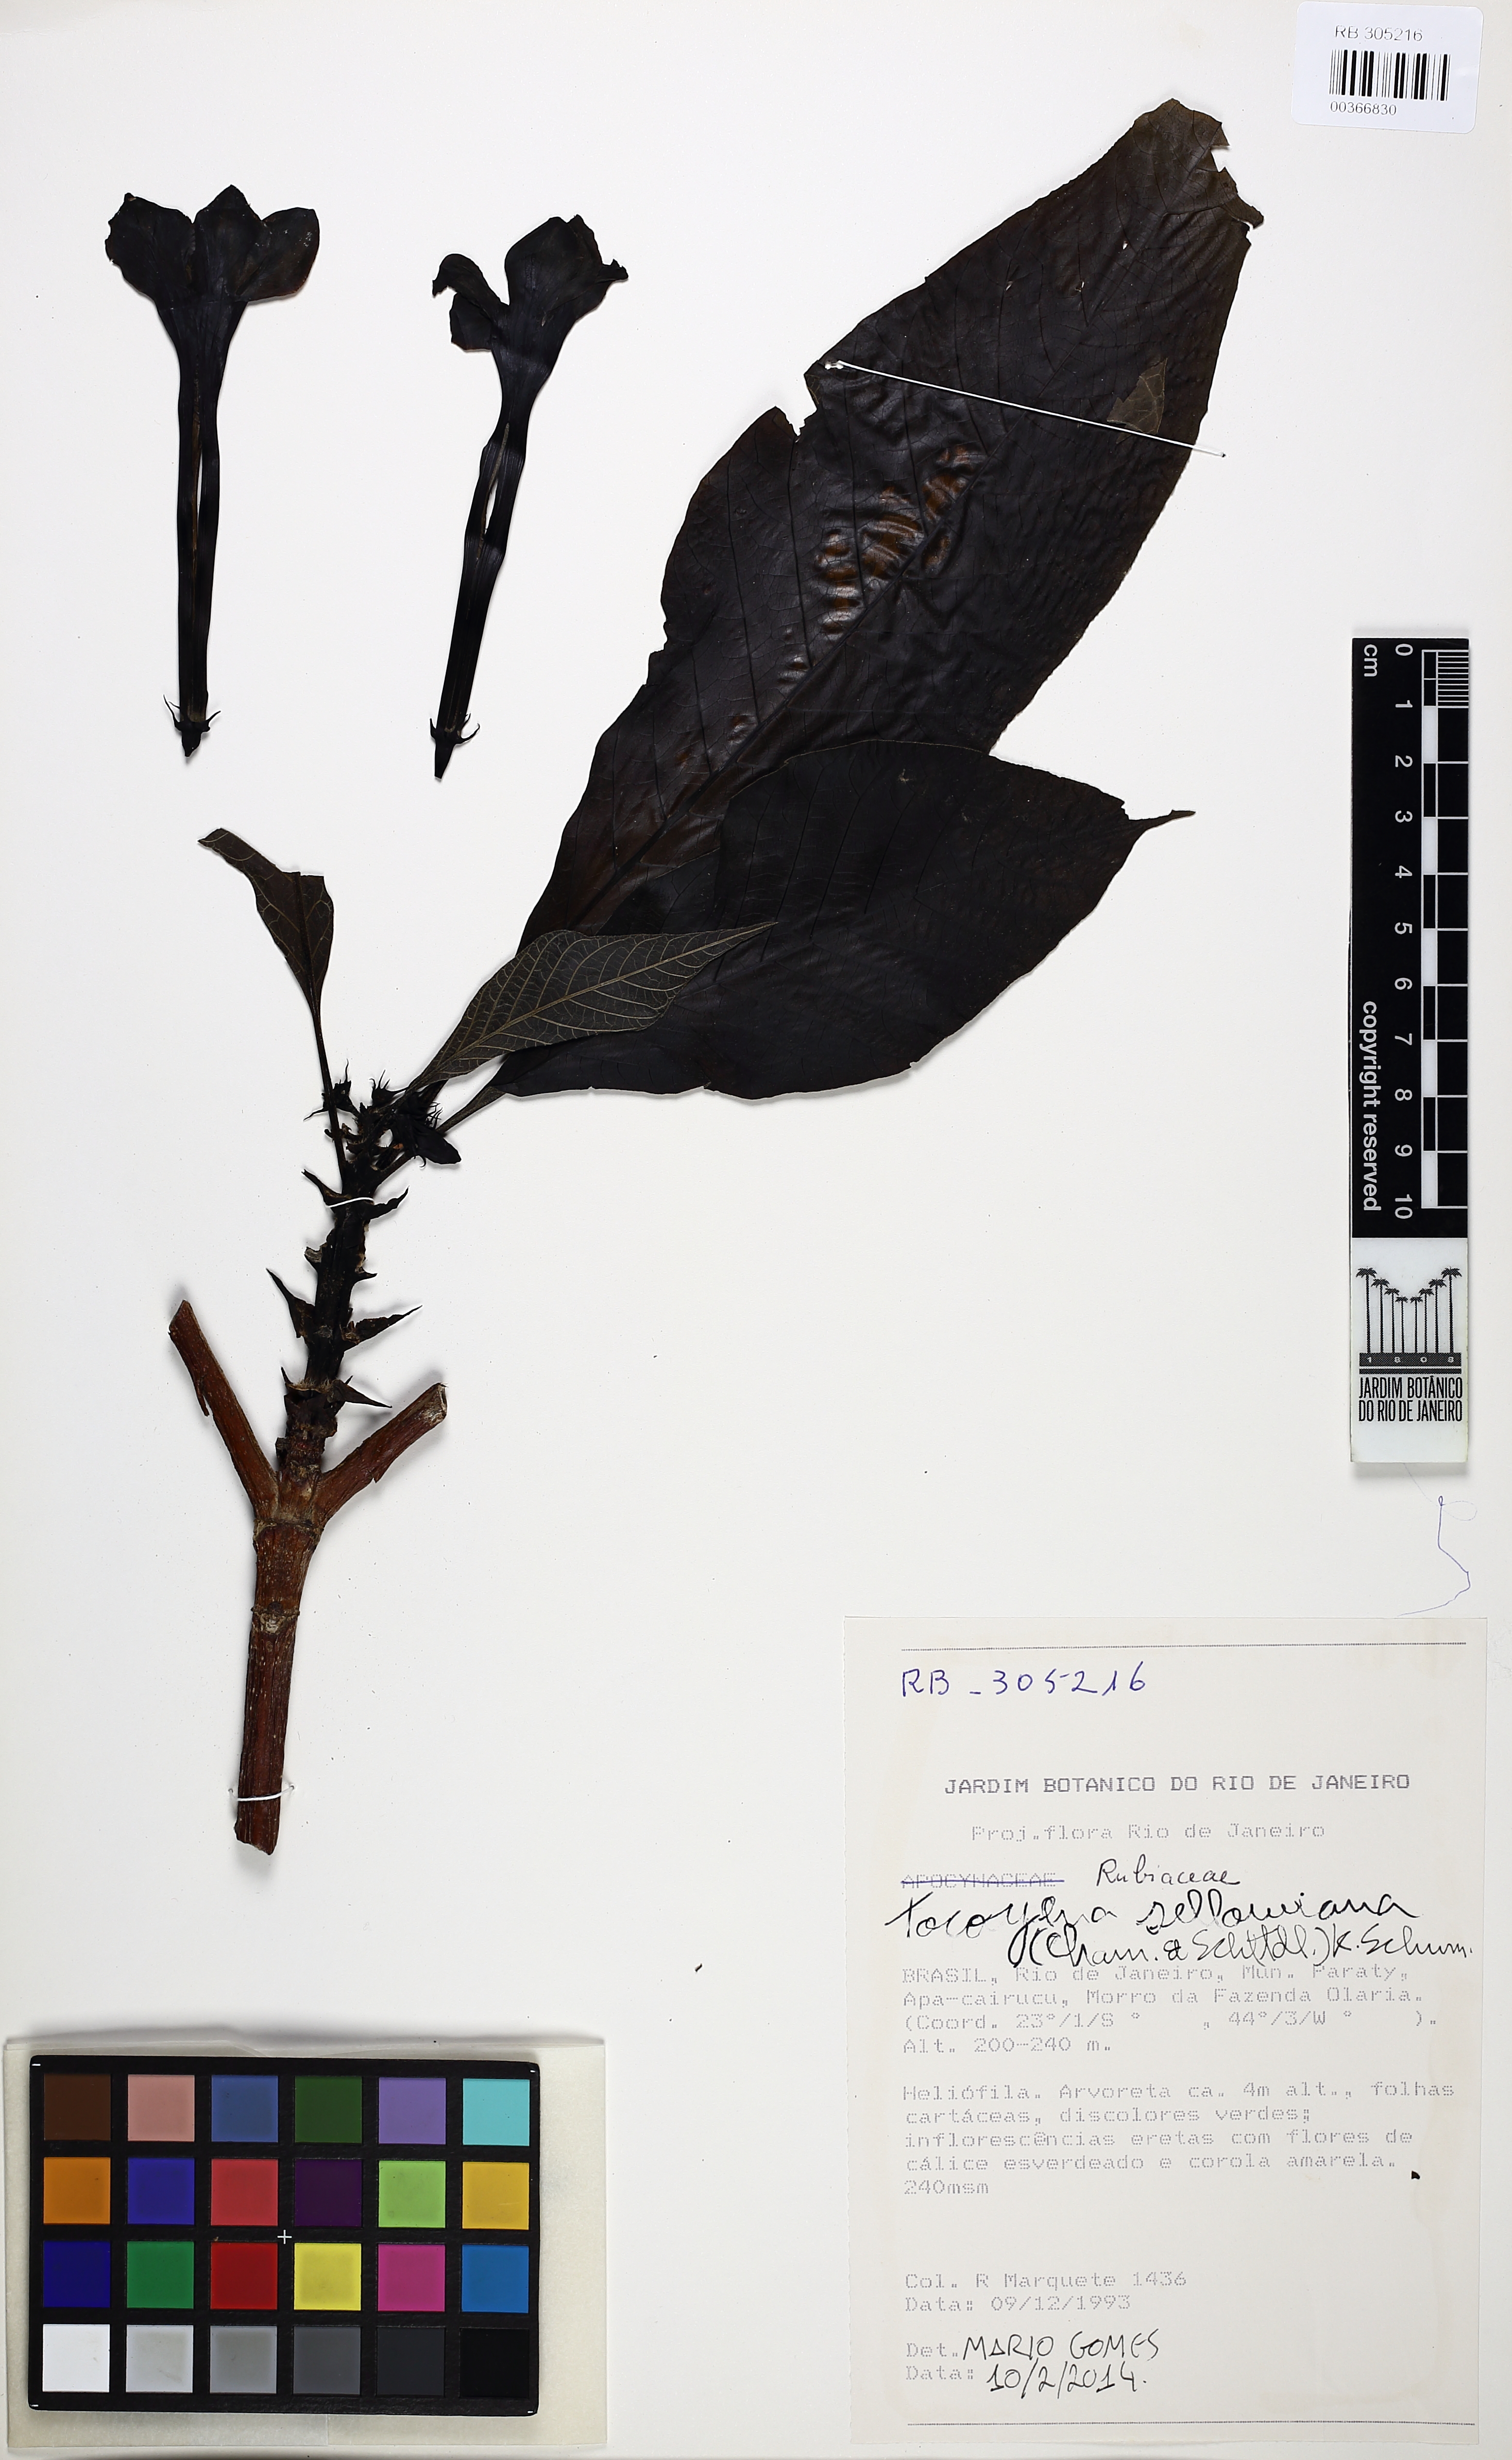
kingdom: Plantae
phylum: Tracheophyta
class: Magnoliopsida
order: Gentianales
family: Rubiaceae
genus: Tocoyena
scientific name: Tocoyena sellowiana
